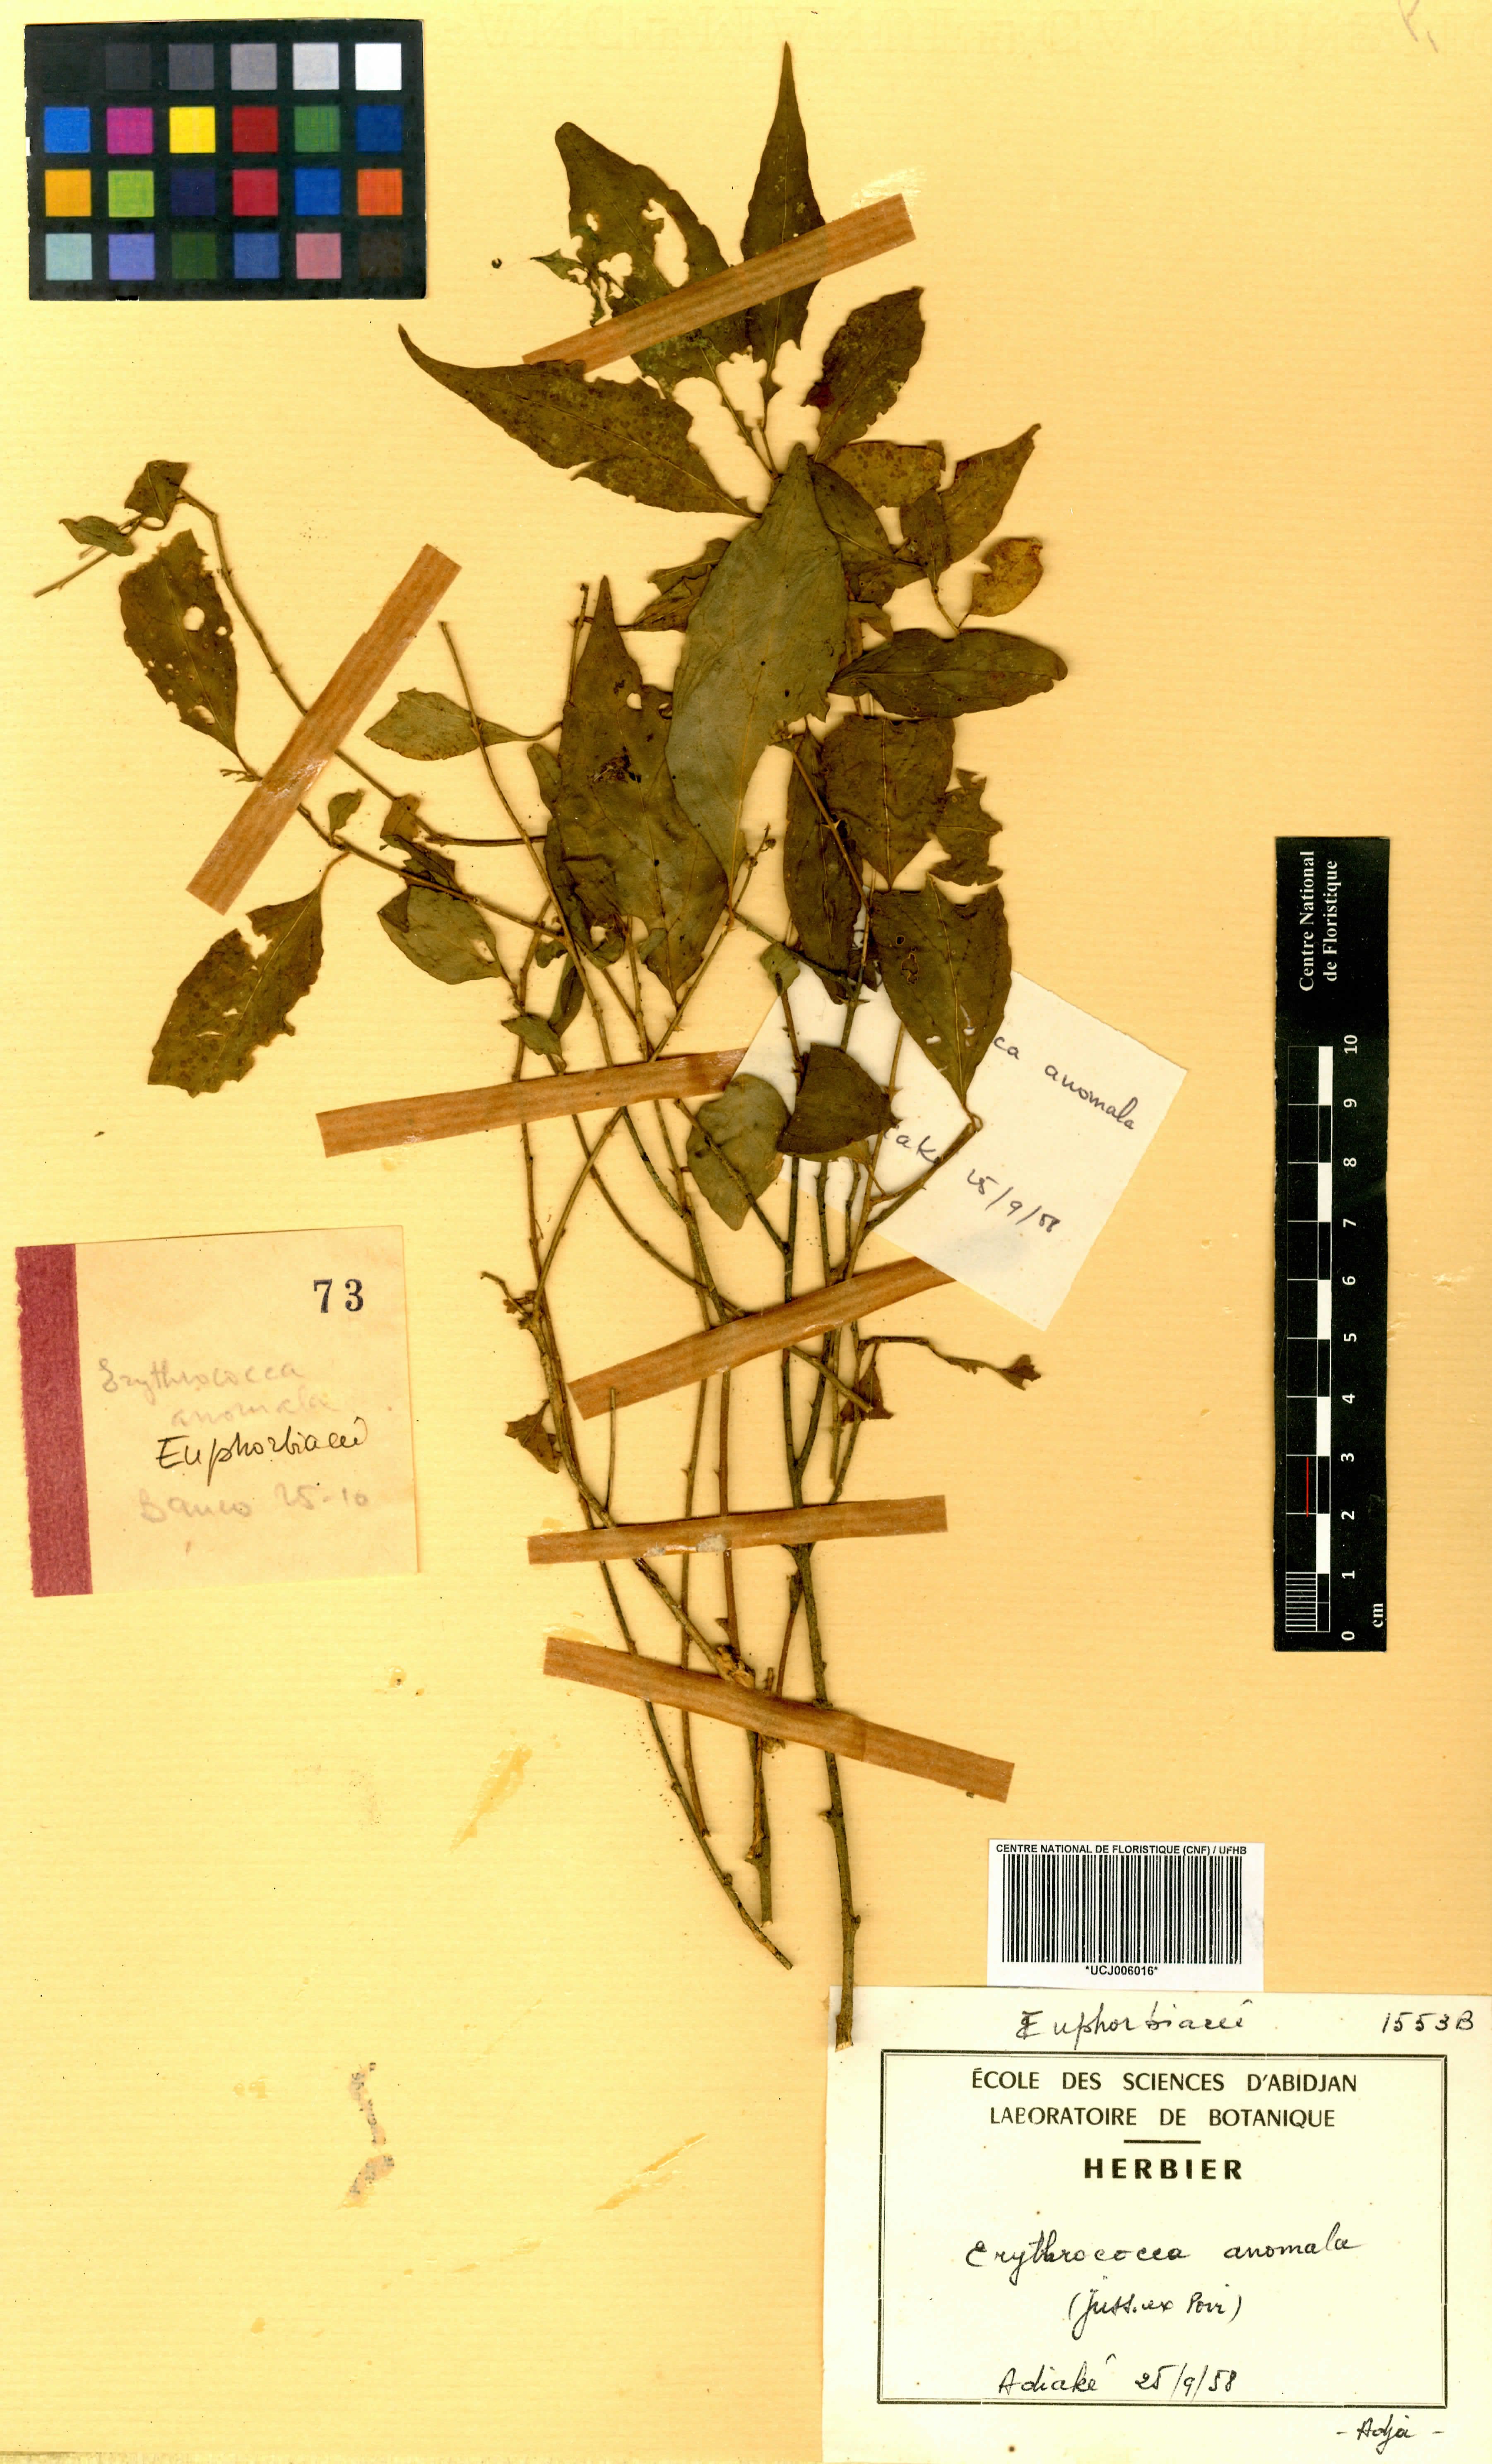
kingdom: Plantae
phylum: Tracheophyta
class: Magnoliopsida
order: Malpighiales
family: Euphorbiaceae
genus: Erythrococca
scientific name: Erythrococca anomala
